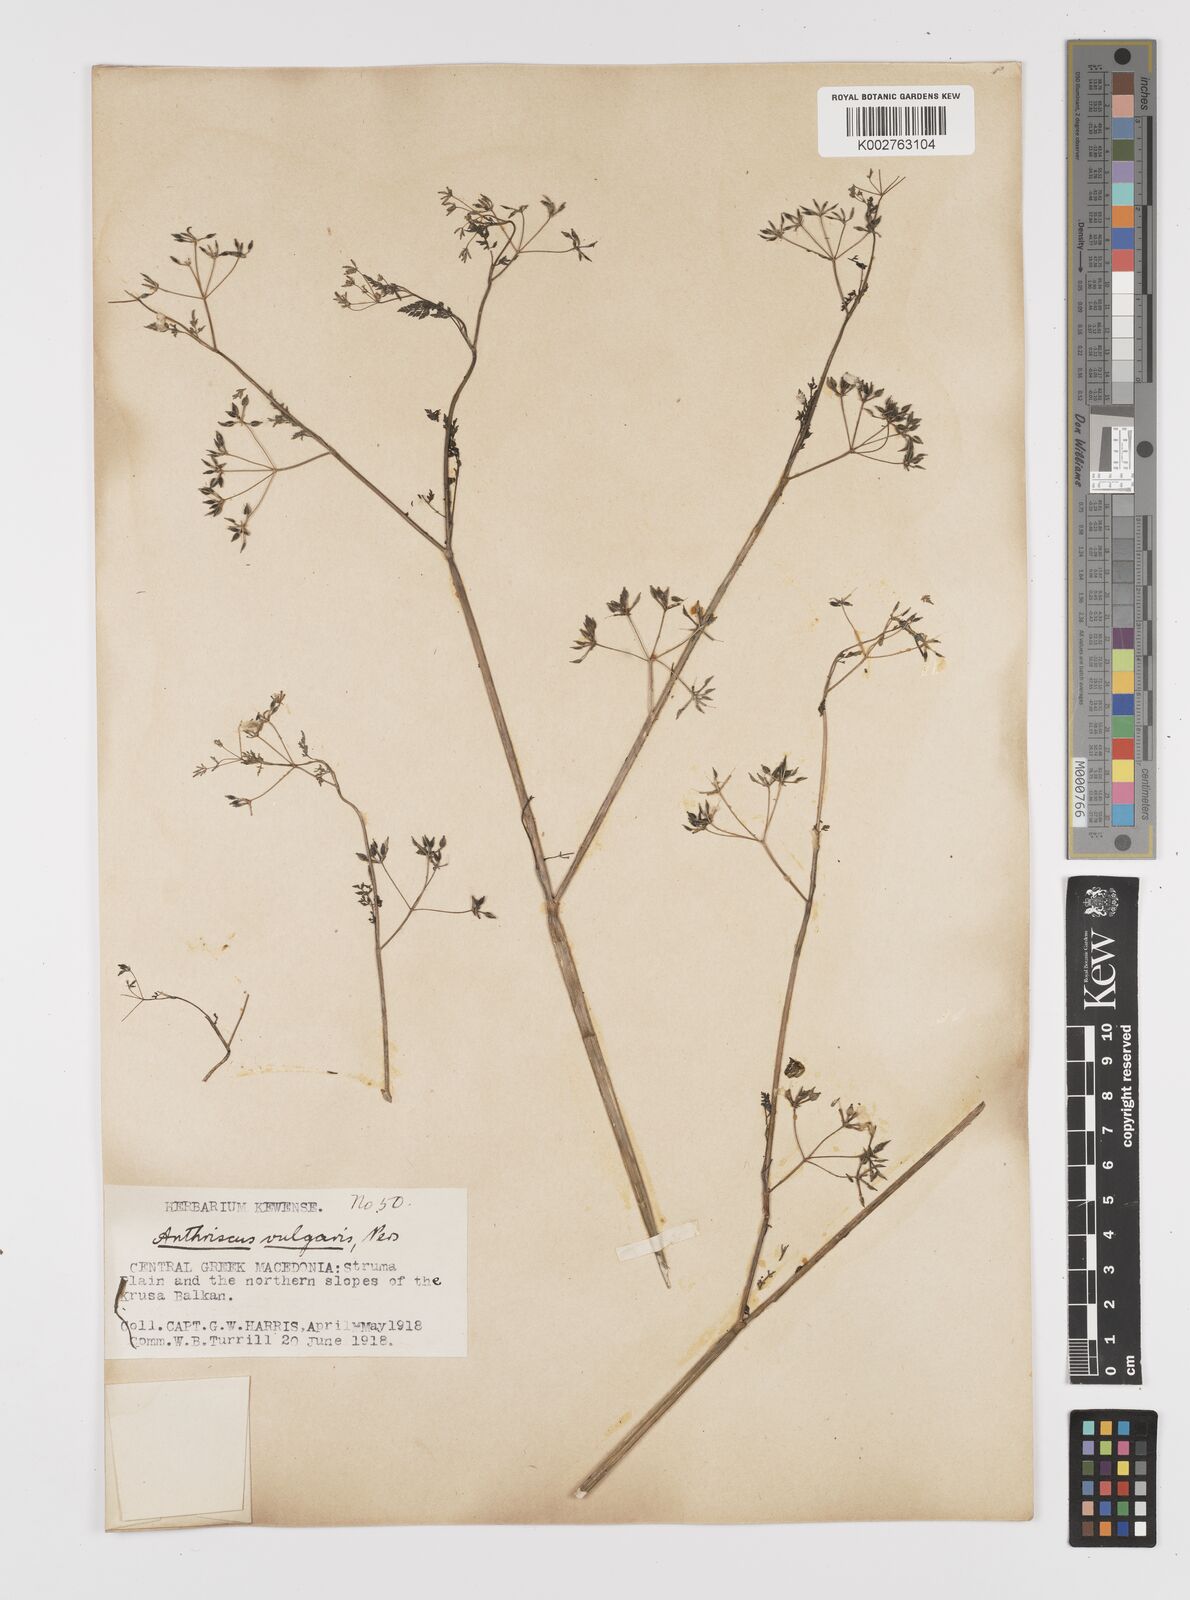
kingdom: Plantae
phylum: Tracheophyta
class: Magnoliopsida
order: Apiales
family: Apiaceae
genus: Anthriscus
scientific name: Anthriscus caucalis
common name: Bur chervil
